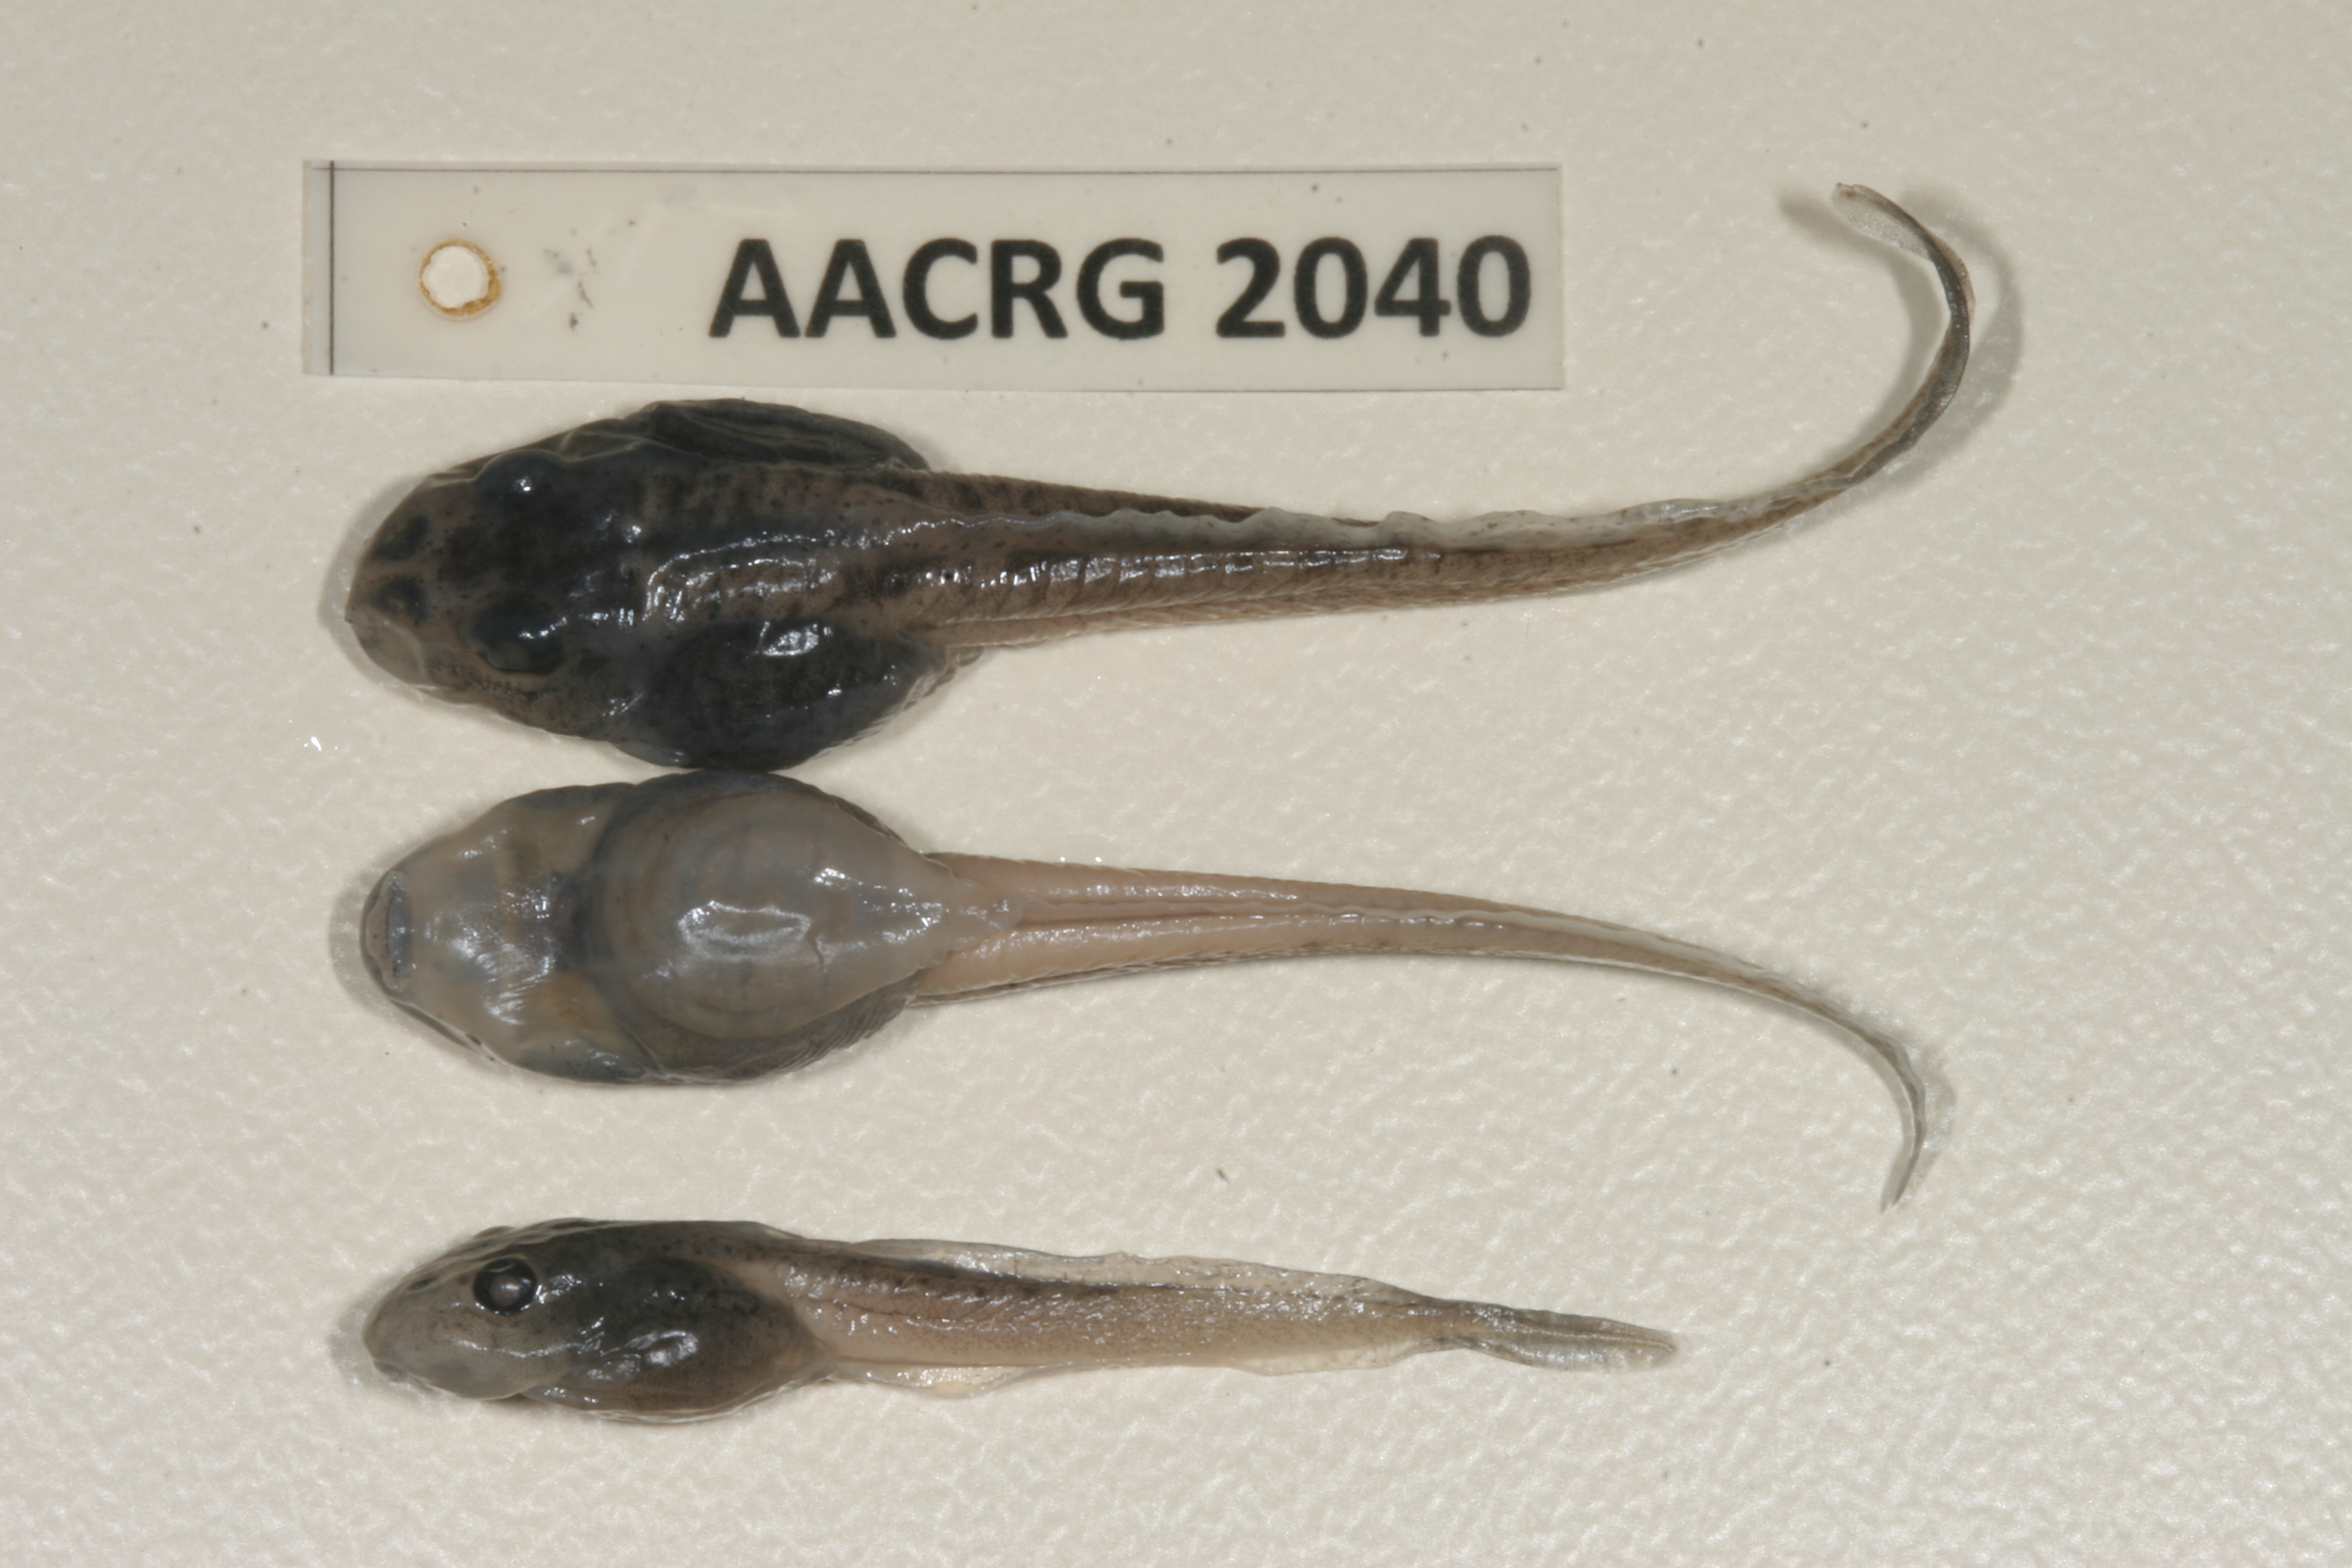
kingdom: Animalia
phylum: Chordata
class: Amphibia
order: Anura
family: Pyxicephalidae
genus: Amietia
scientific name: Amietia angolensis
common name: Dusky-throated frog
